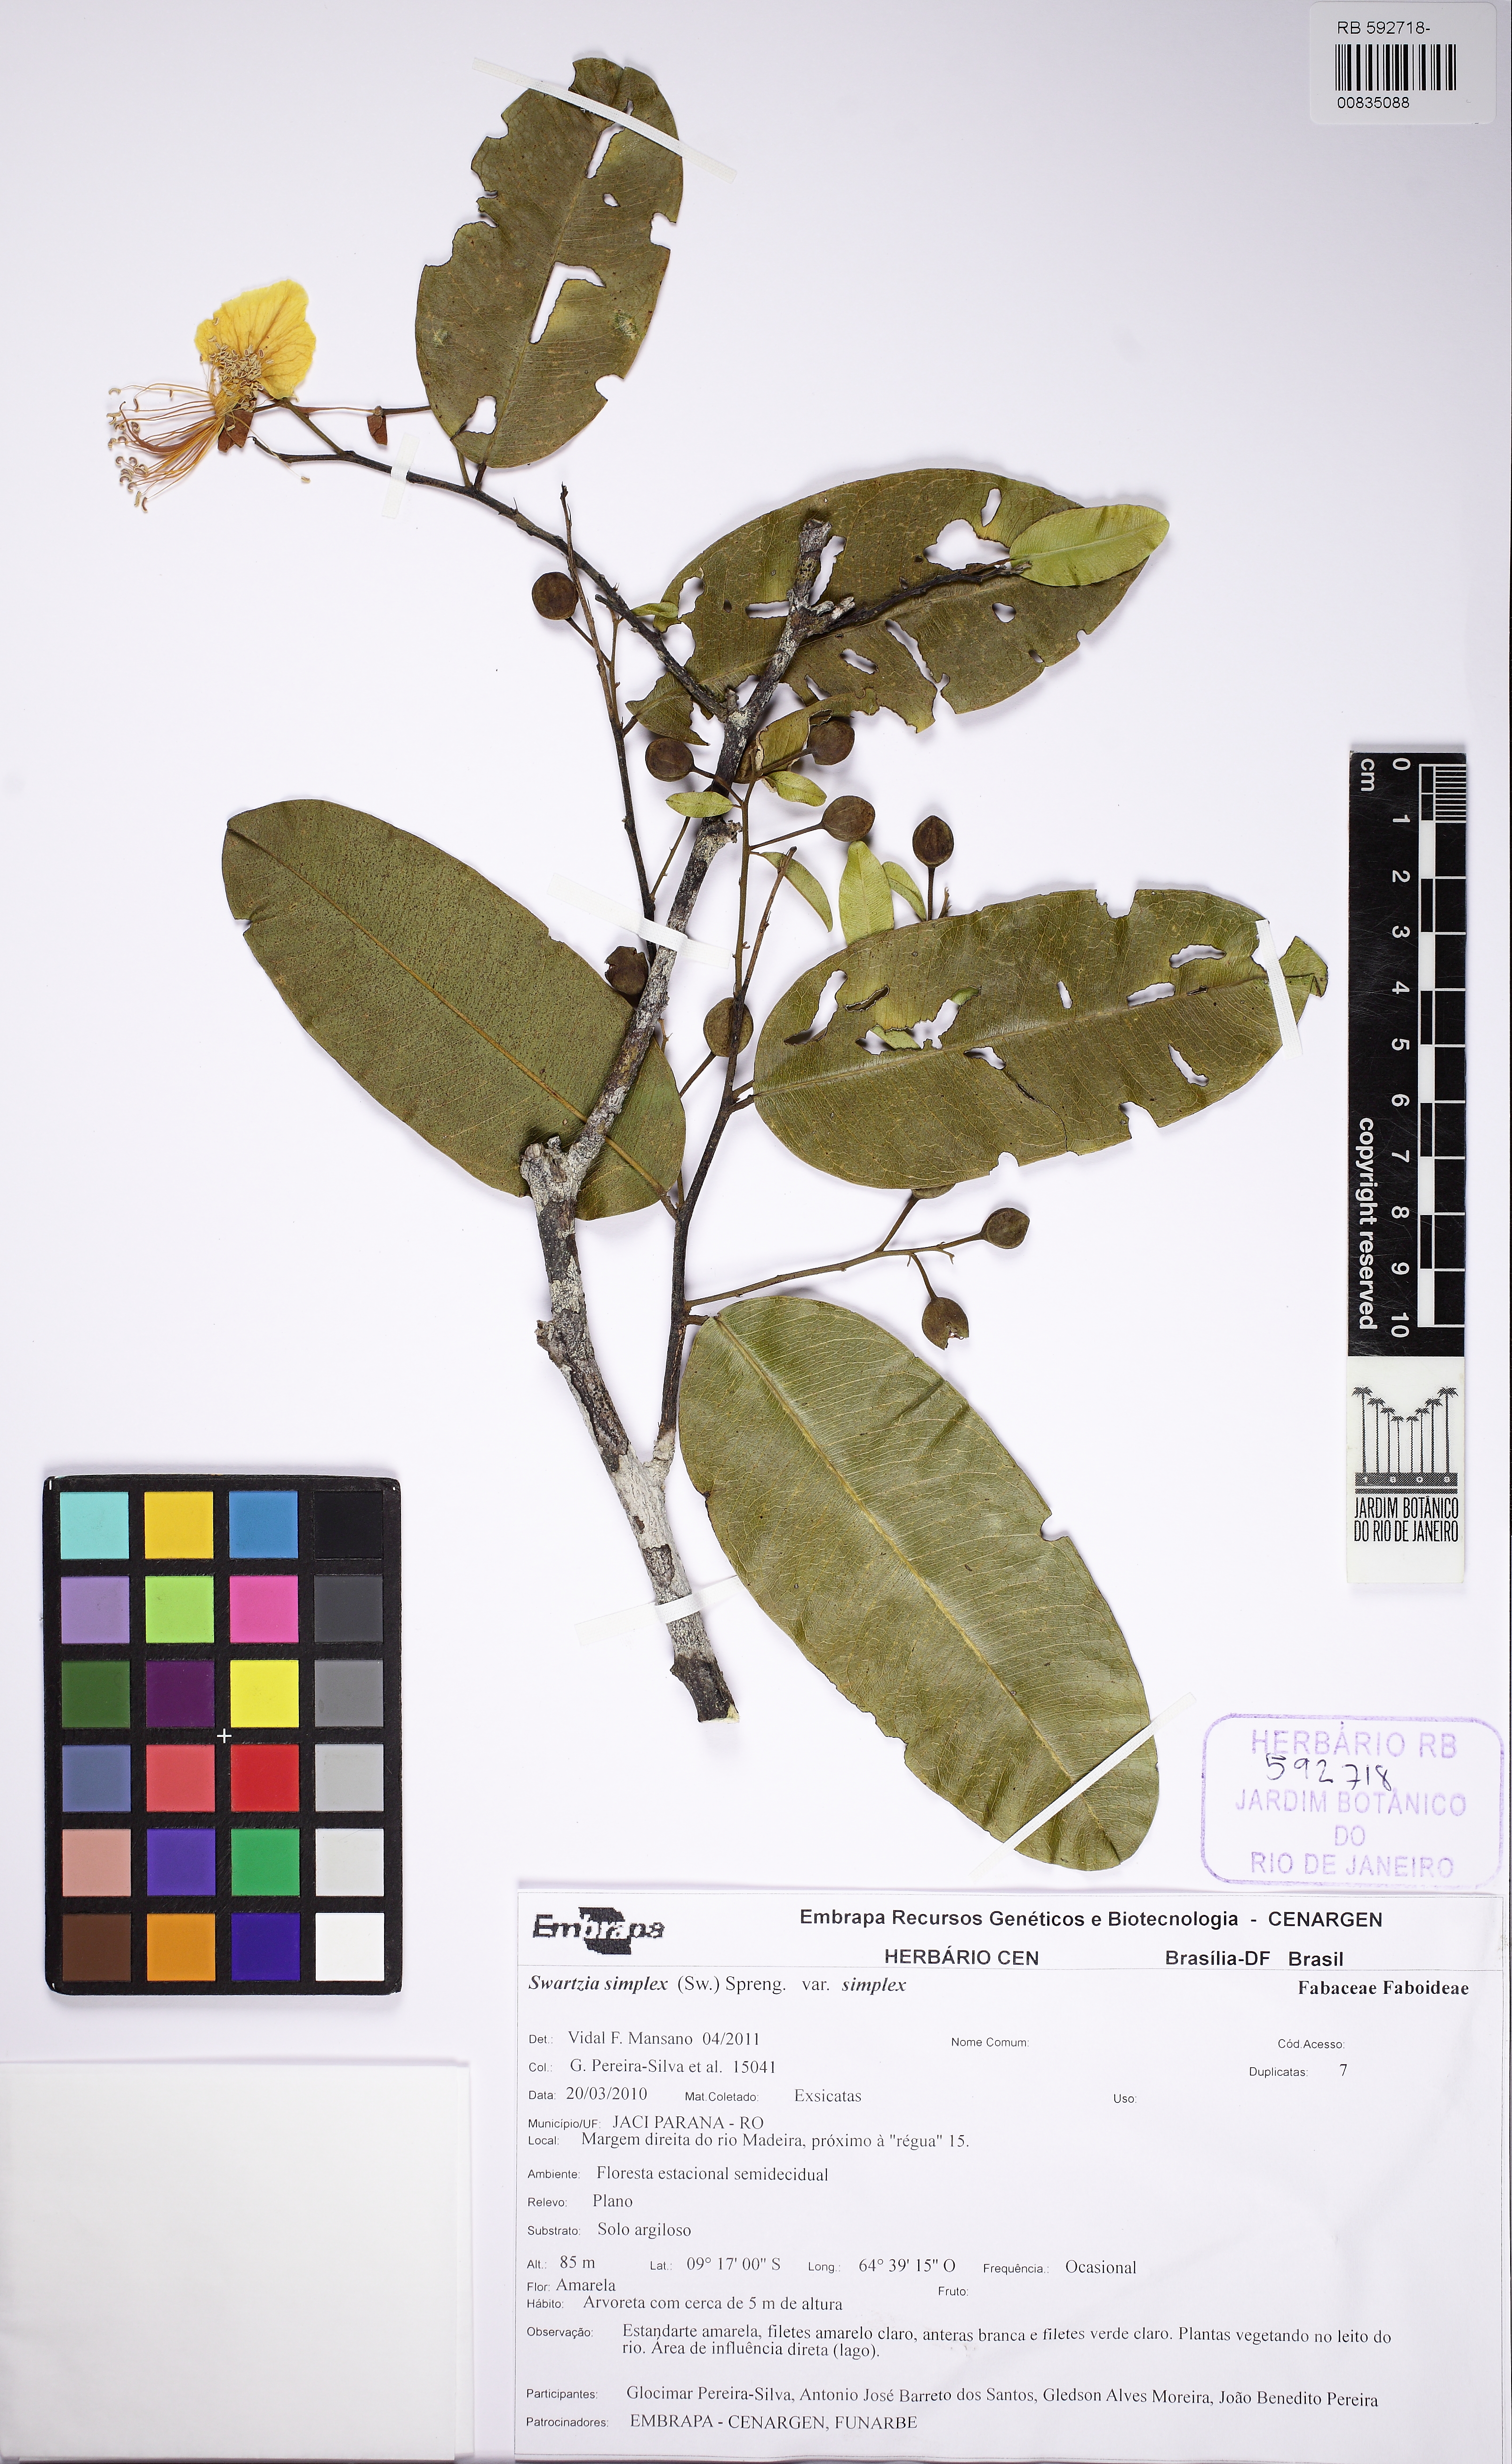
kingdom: Plantae
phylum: Tracheophyta
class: Magnoliopsida
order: Fabales
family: Fabaceae
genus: Swartzia
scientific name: Swartzia simplex
